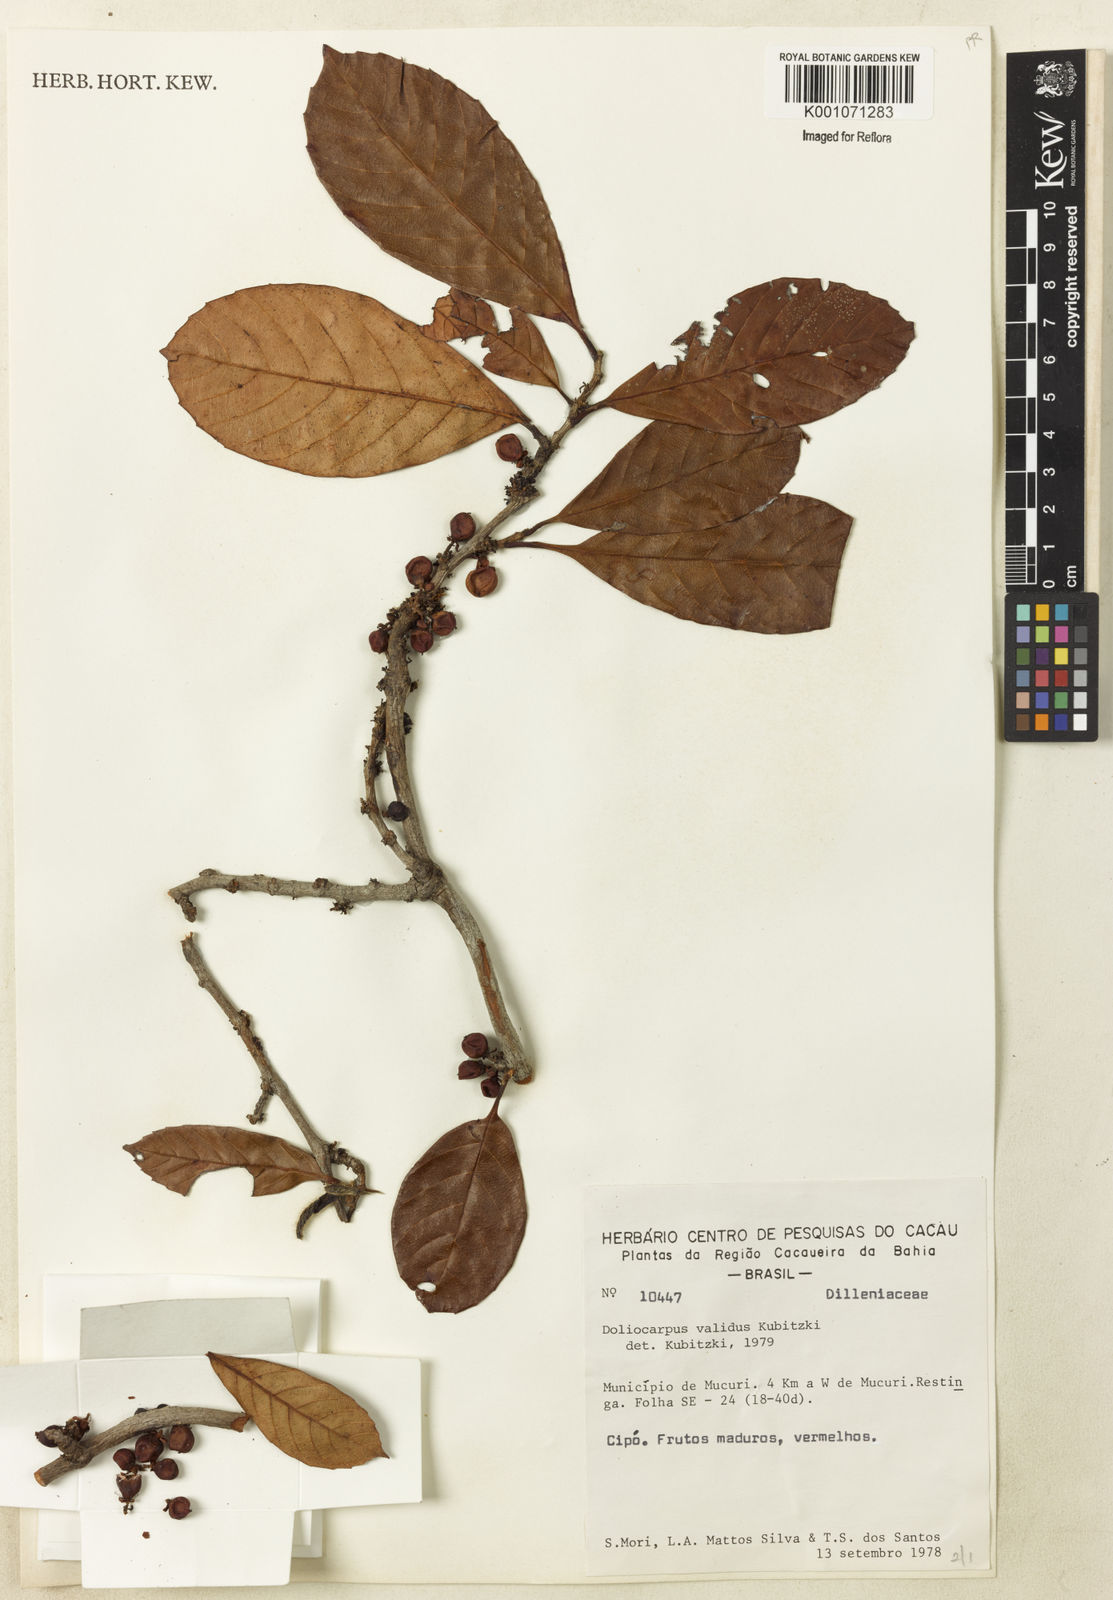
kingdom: Plantae
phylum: Tracheophyta
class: Magnoliopsida
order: Dilleniales
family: Dilleniaceae
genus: Doliocarpus
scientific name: Doliocarpus validus
